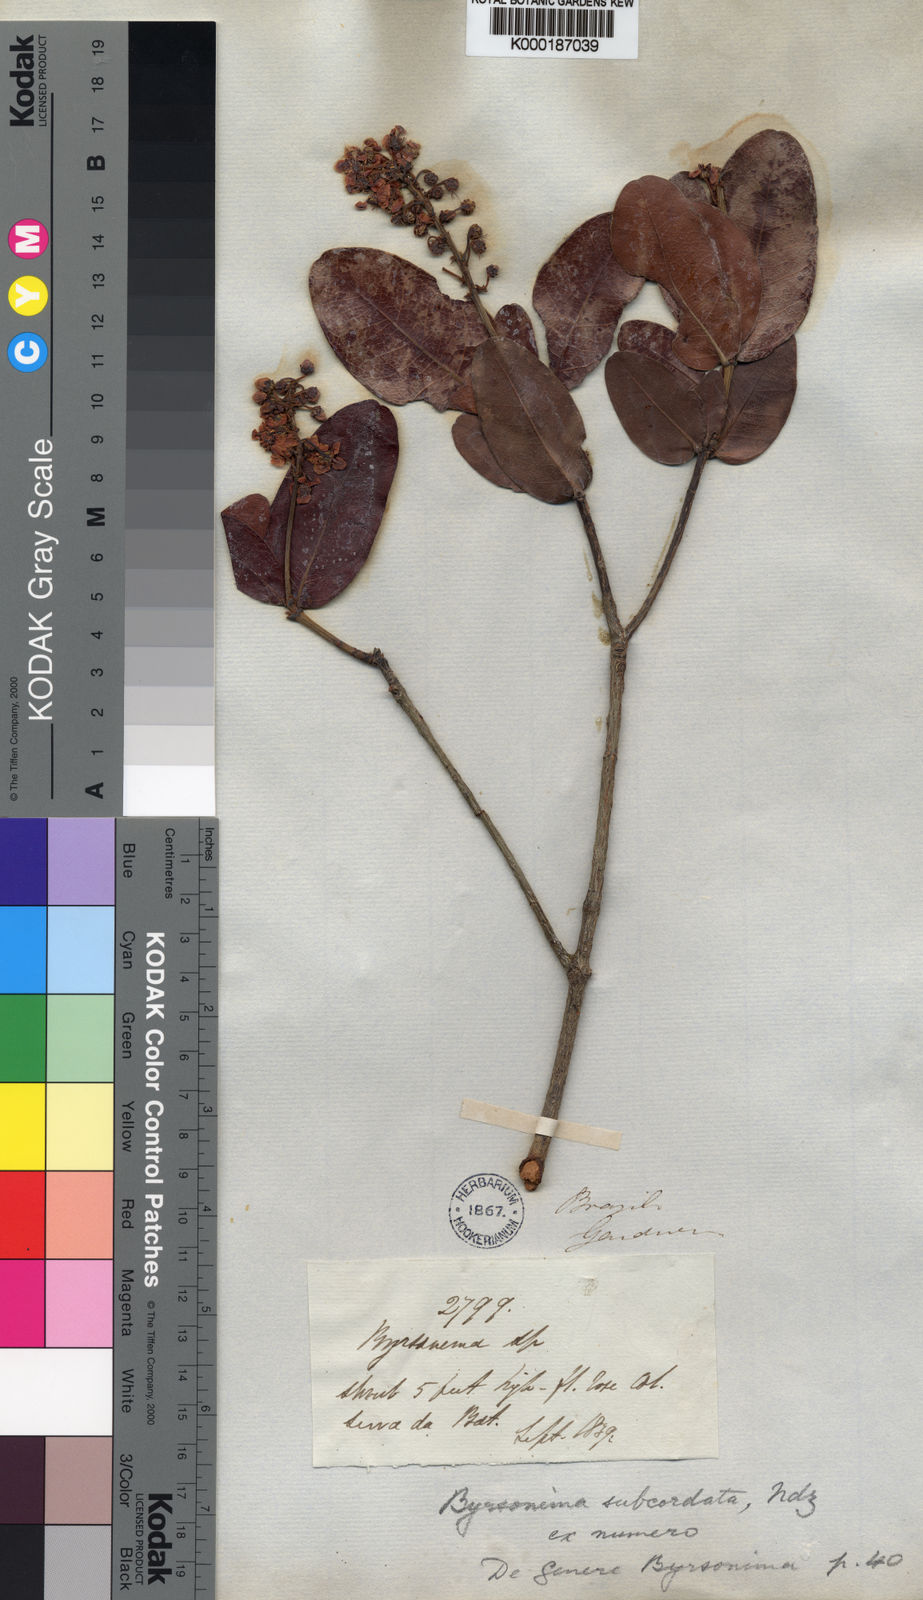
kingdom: Plantae
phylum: Tracheophyta
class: Magnoliopsida
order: Malpighiales
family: Malpighiaceae
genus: Byrsonima
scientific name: Byrsonima subcordata
